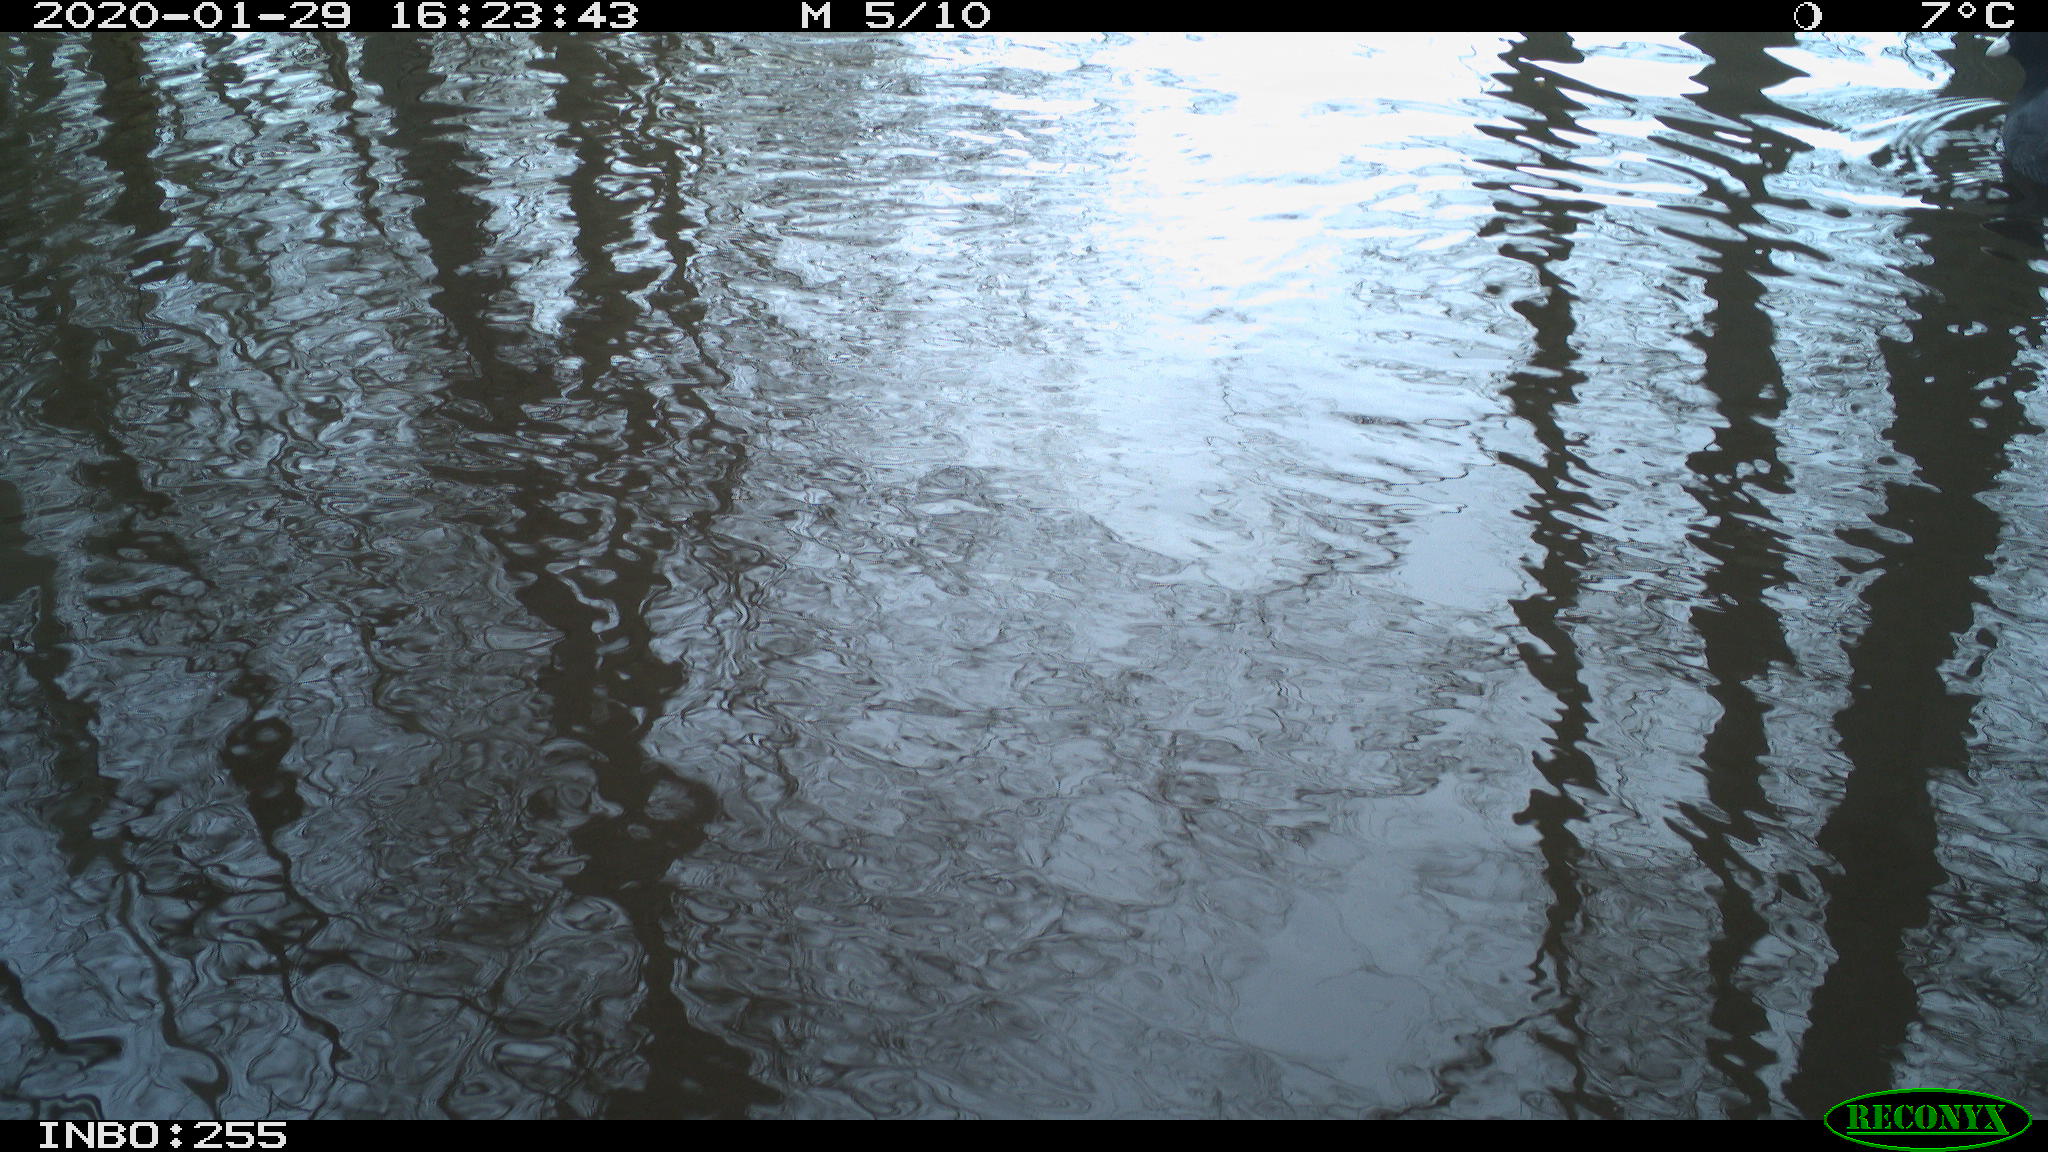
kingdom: Animalia
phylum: Chordata
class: Aves
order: Gruiformes
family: Rallidae
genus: Fulica
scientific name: Fulica atra
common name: Eurasian coot
